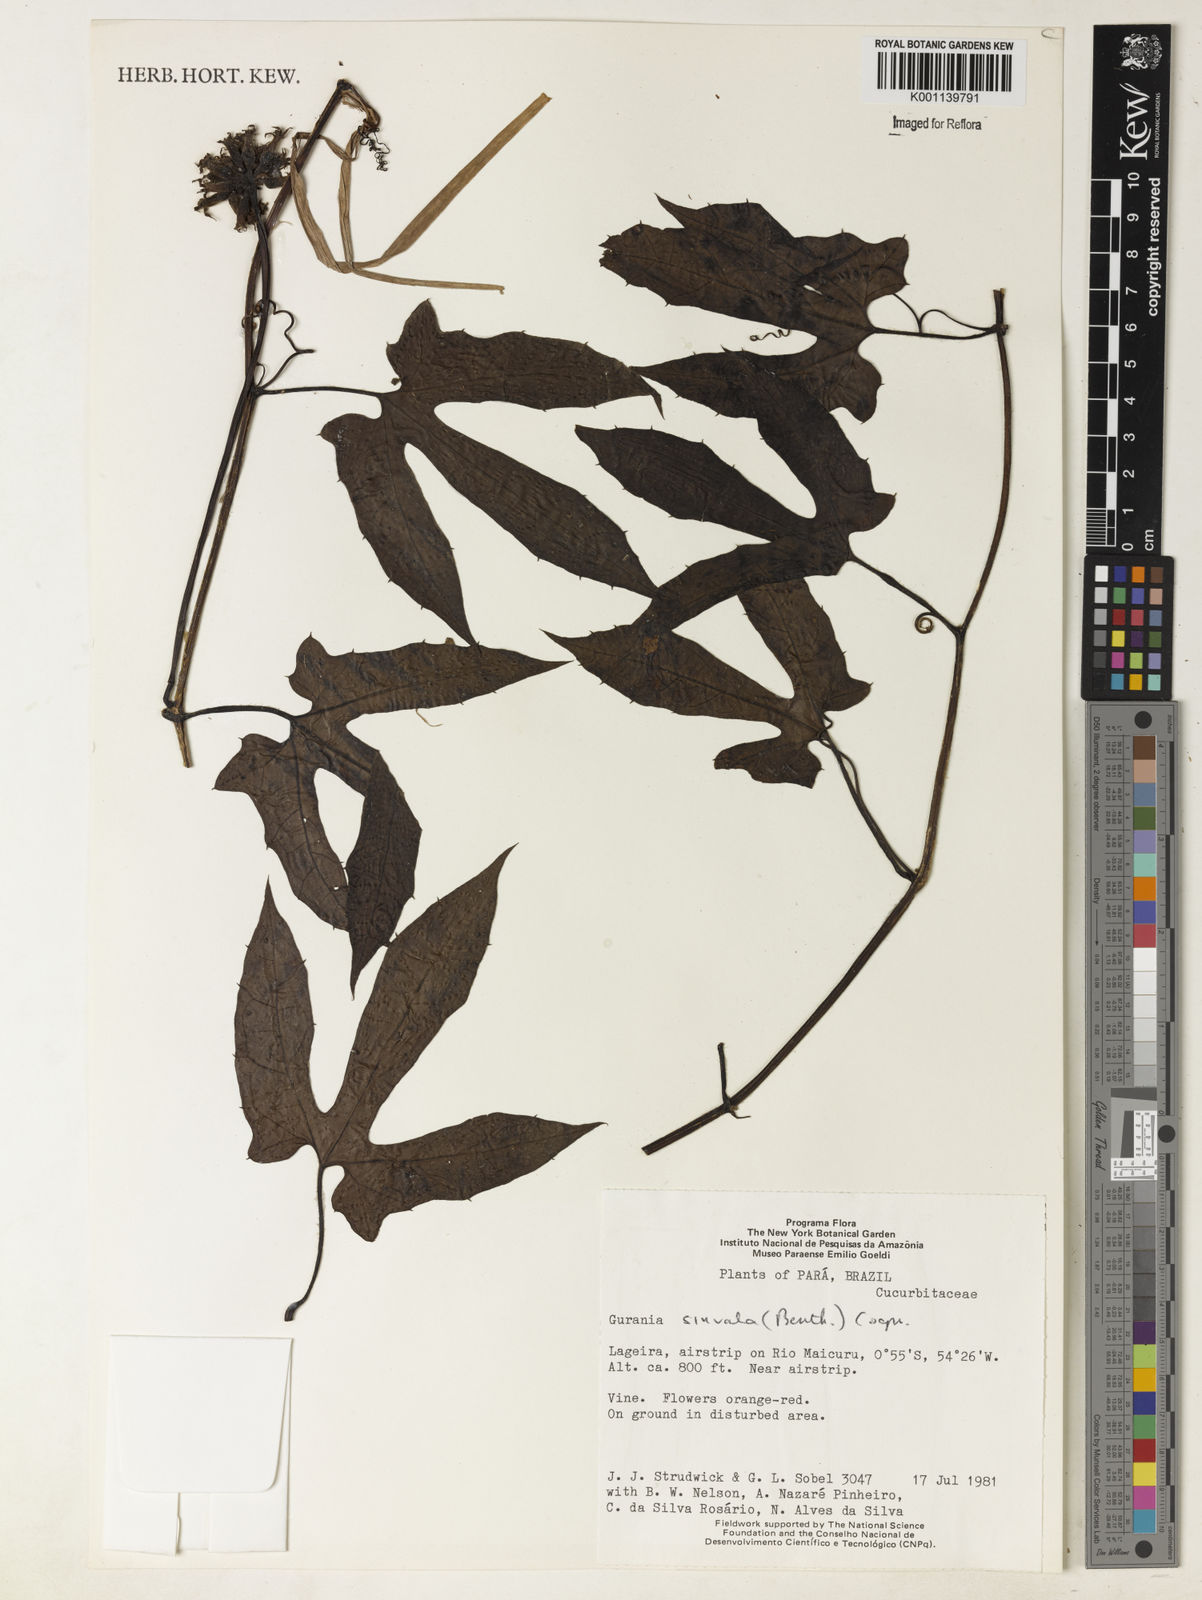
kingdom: Plantae
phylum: Tracheophyta
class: Magnoliopsida
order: Cucurbitales
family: Cucurbitaceae
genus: Gurania
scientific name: Gurania sinuata
